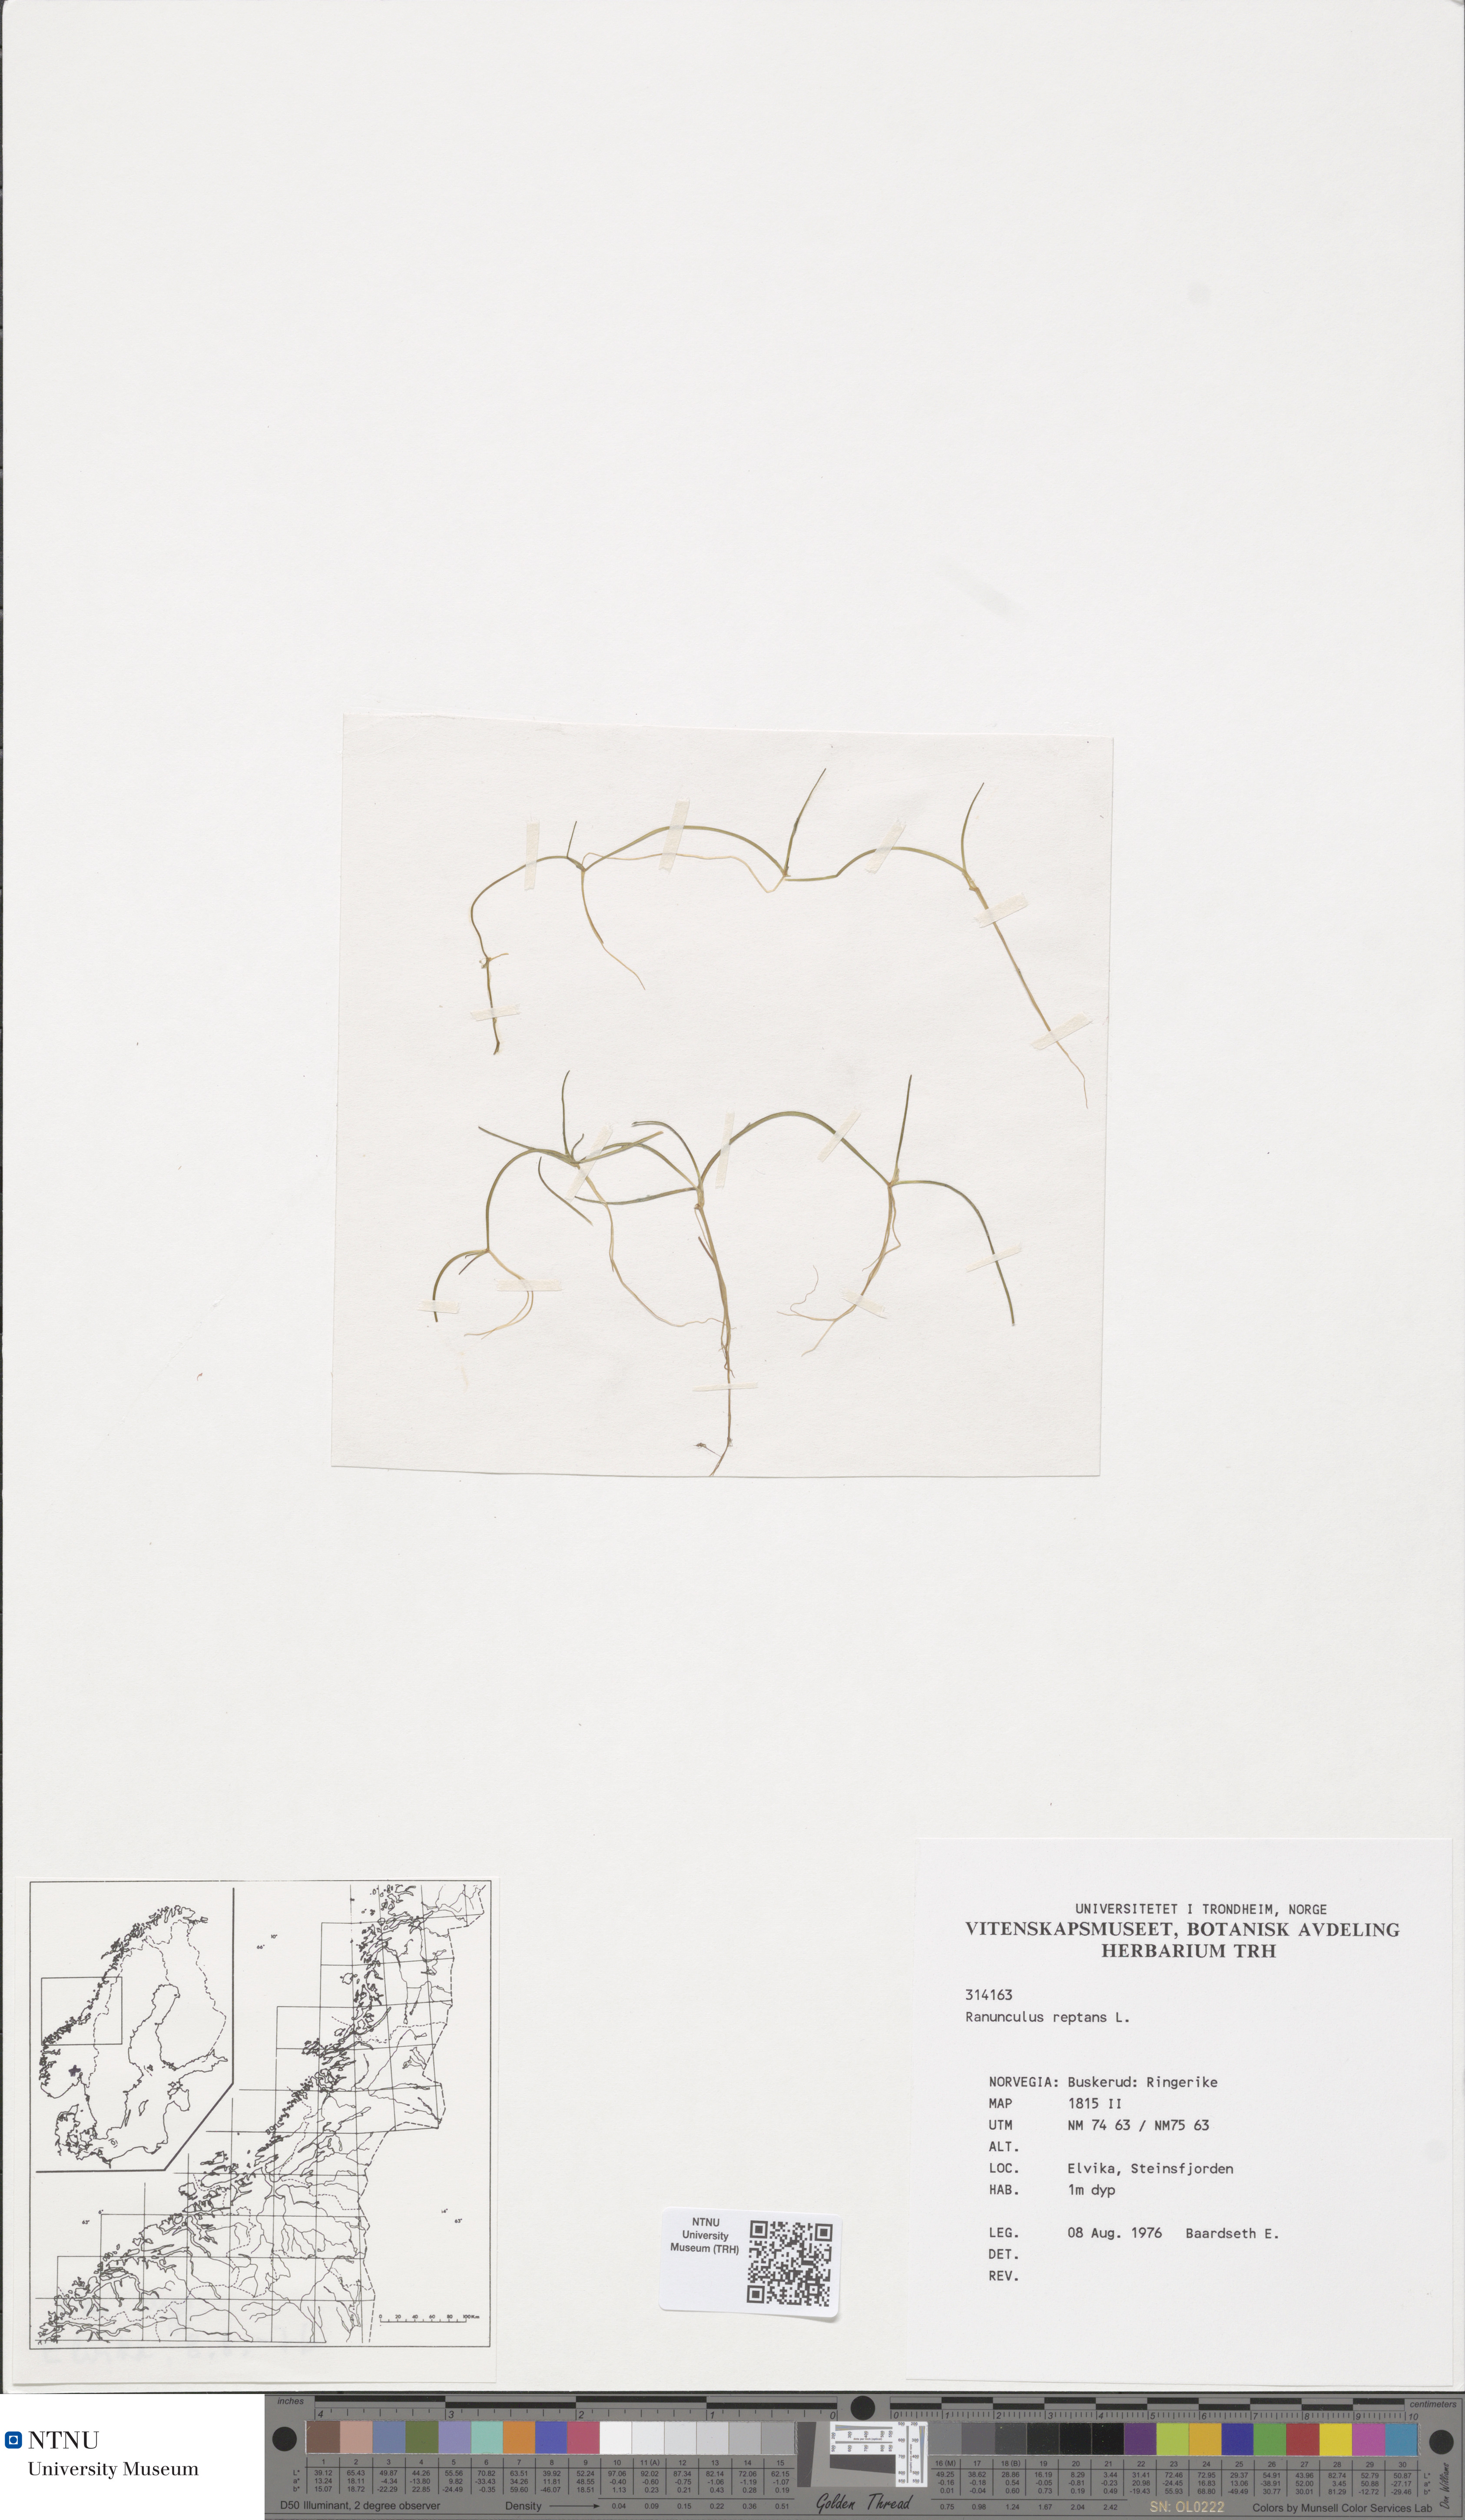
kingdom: Plantae
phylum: Tracheophyta
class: Magnoliopsida
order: Ranunculales
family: Ranunculaceae
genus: Ranunculus
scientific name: Ranunculus reptans
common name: Creeping spearwort
